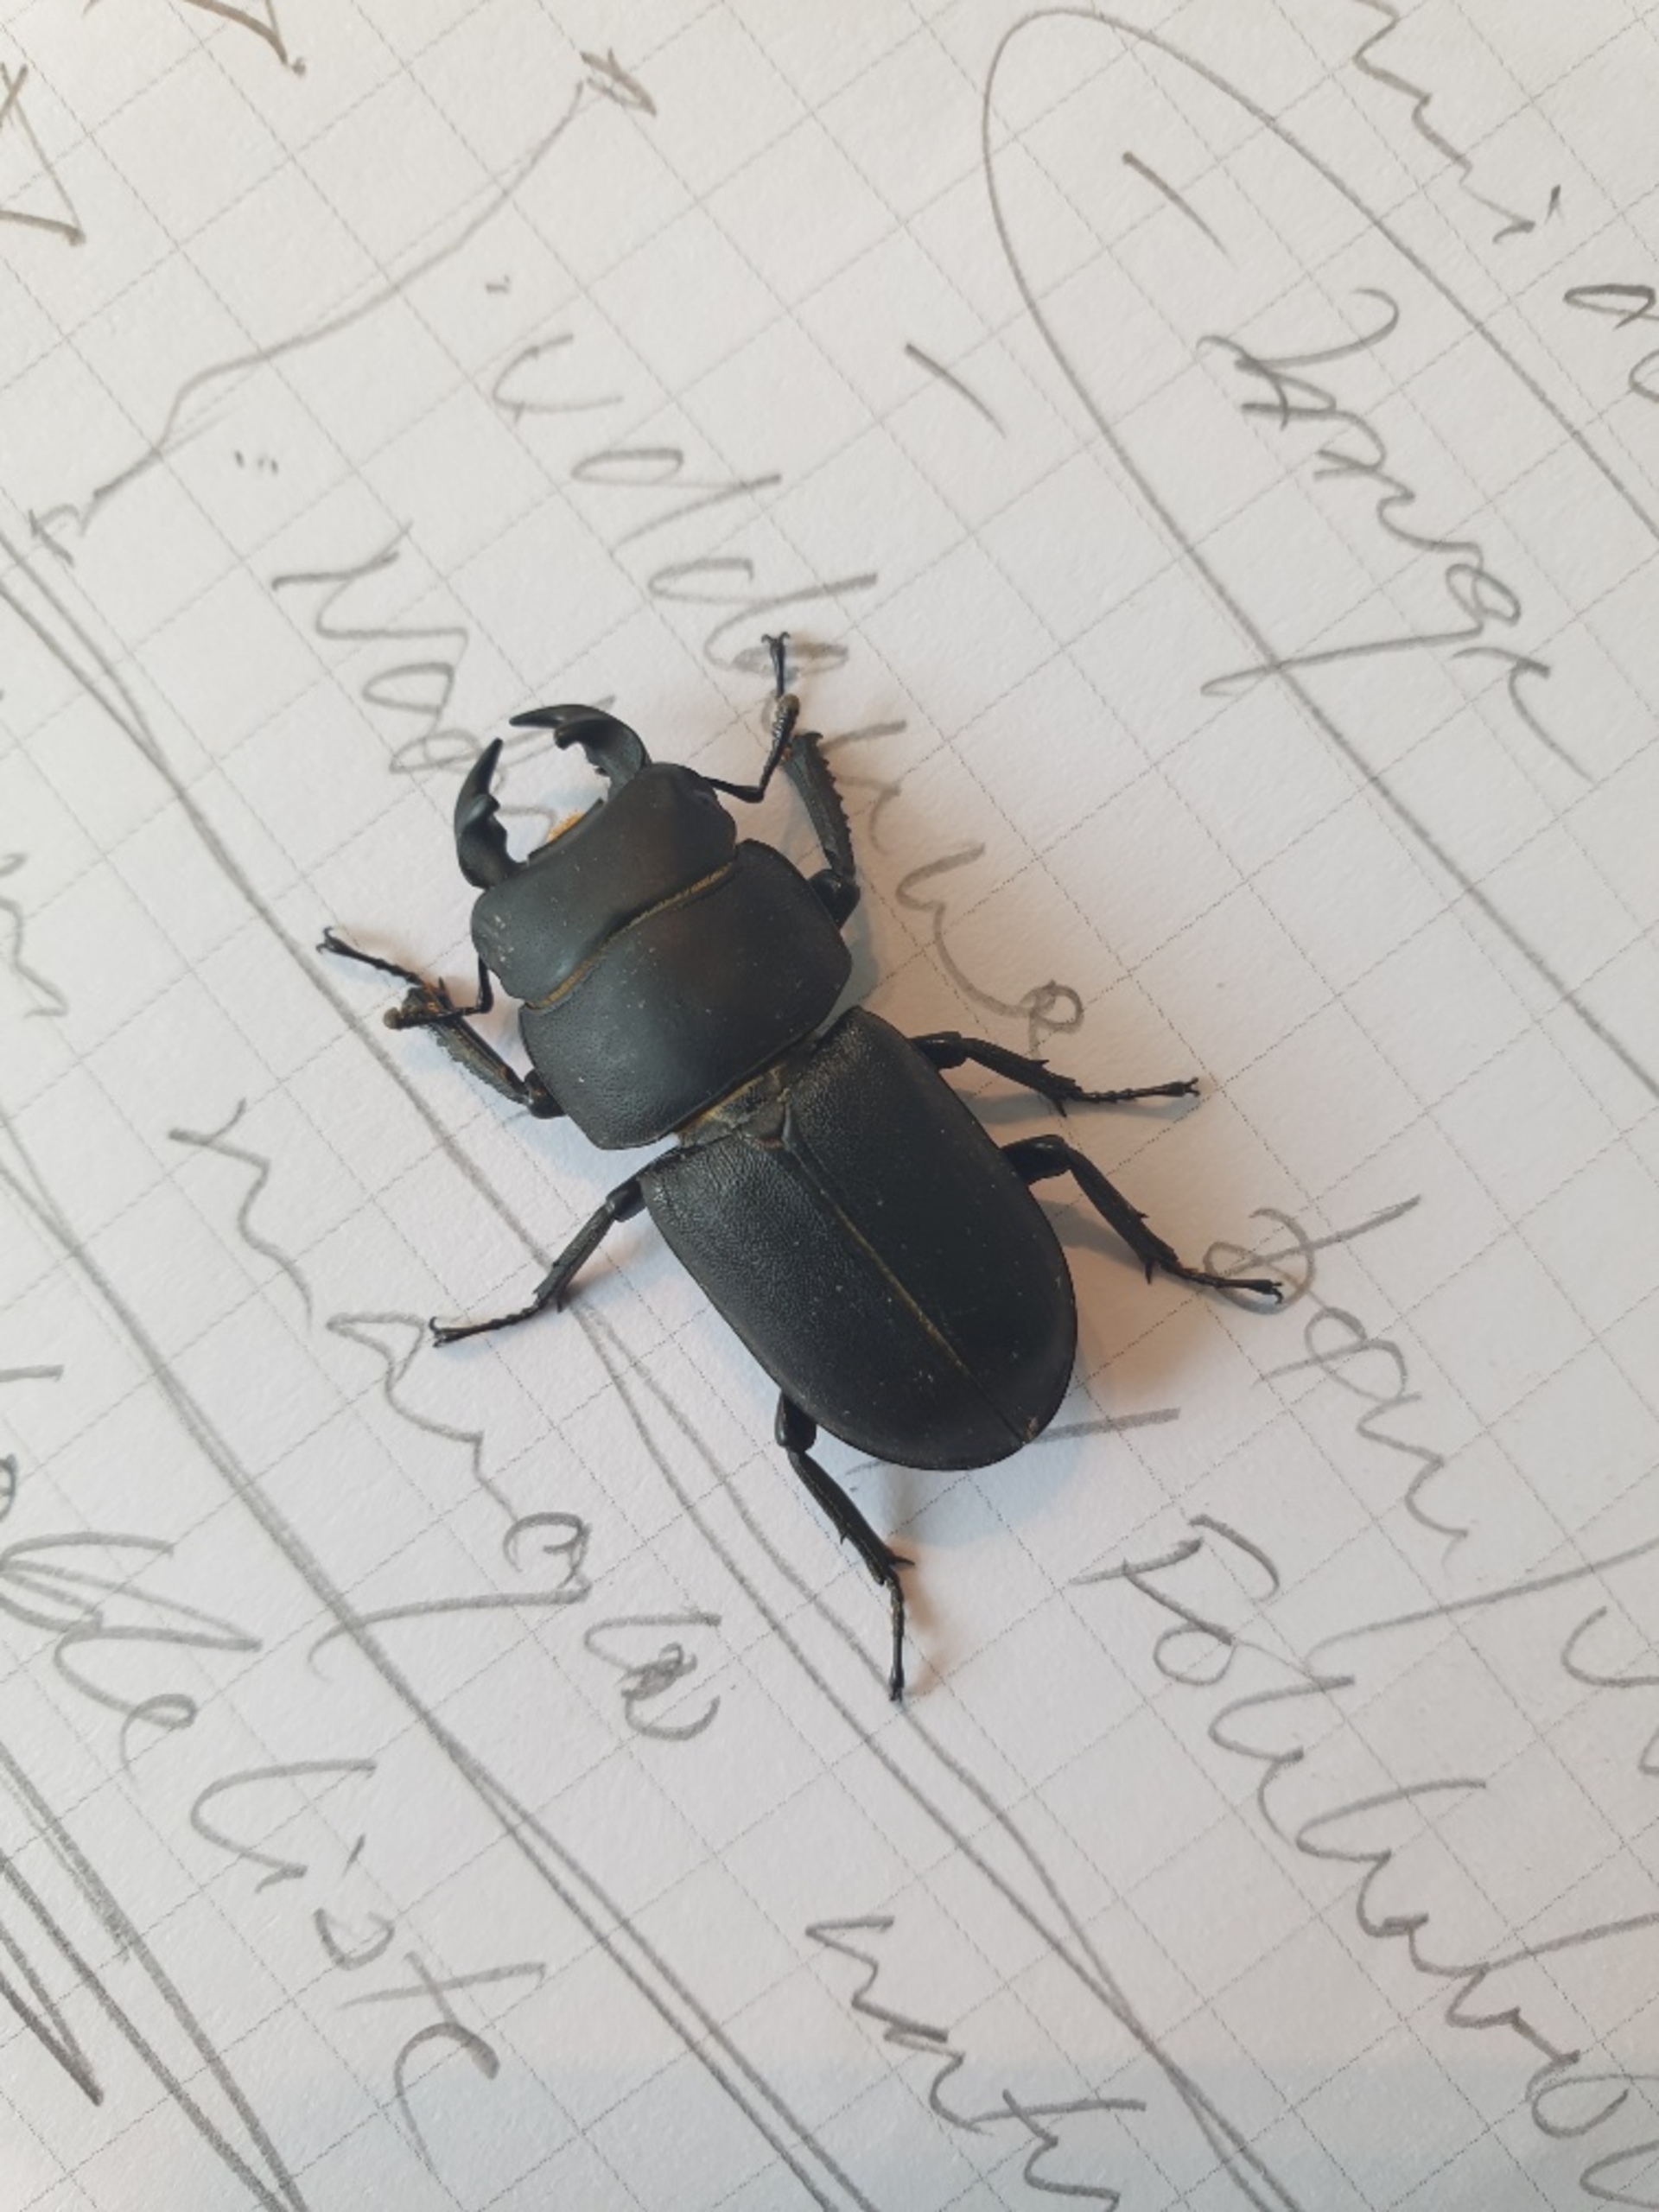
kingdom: Animalia
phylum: Arthropoda
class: Insecta
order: Coleoptera
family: Lucanidae
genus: Dorcus
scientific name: Dorcus parallelipipedus
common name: Bøghjort
